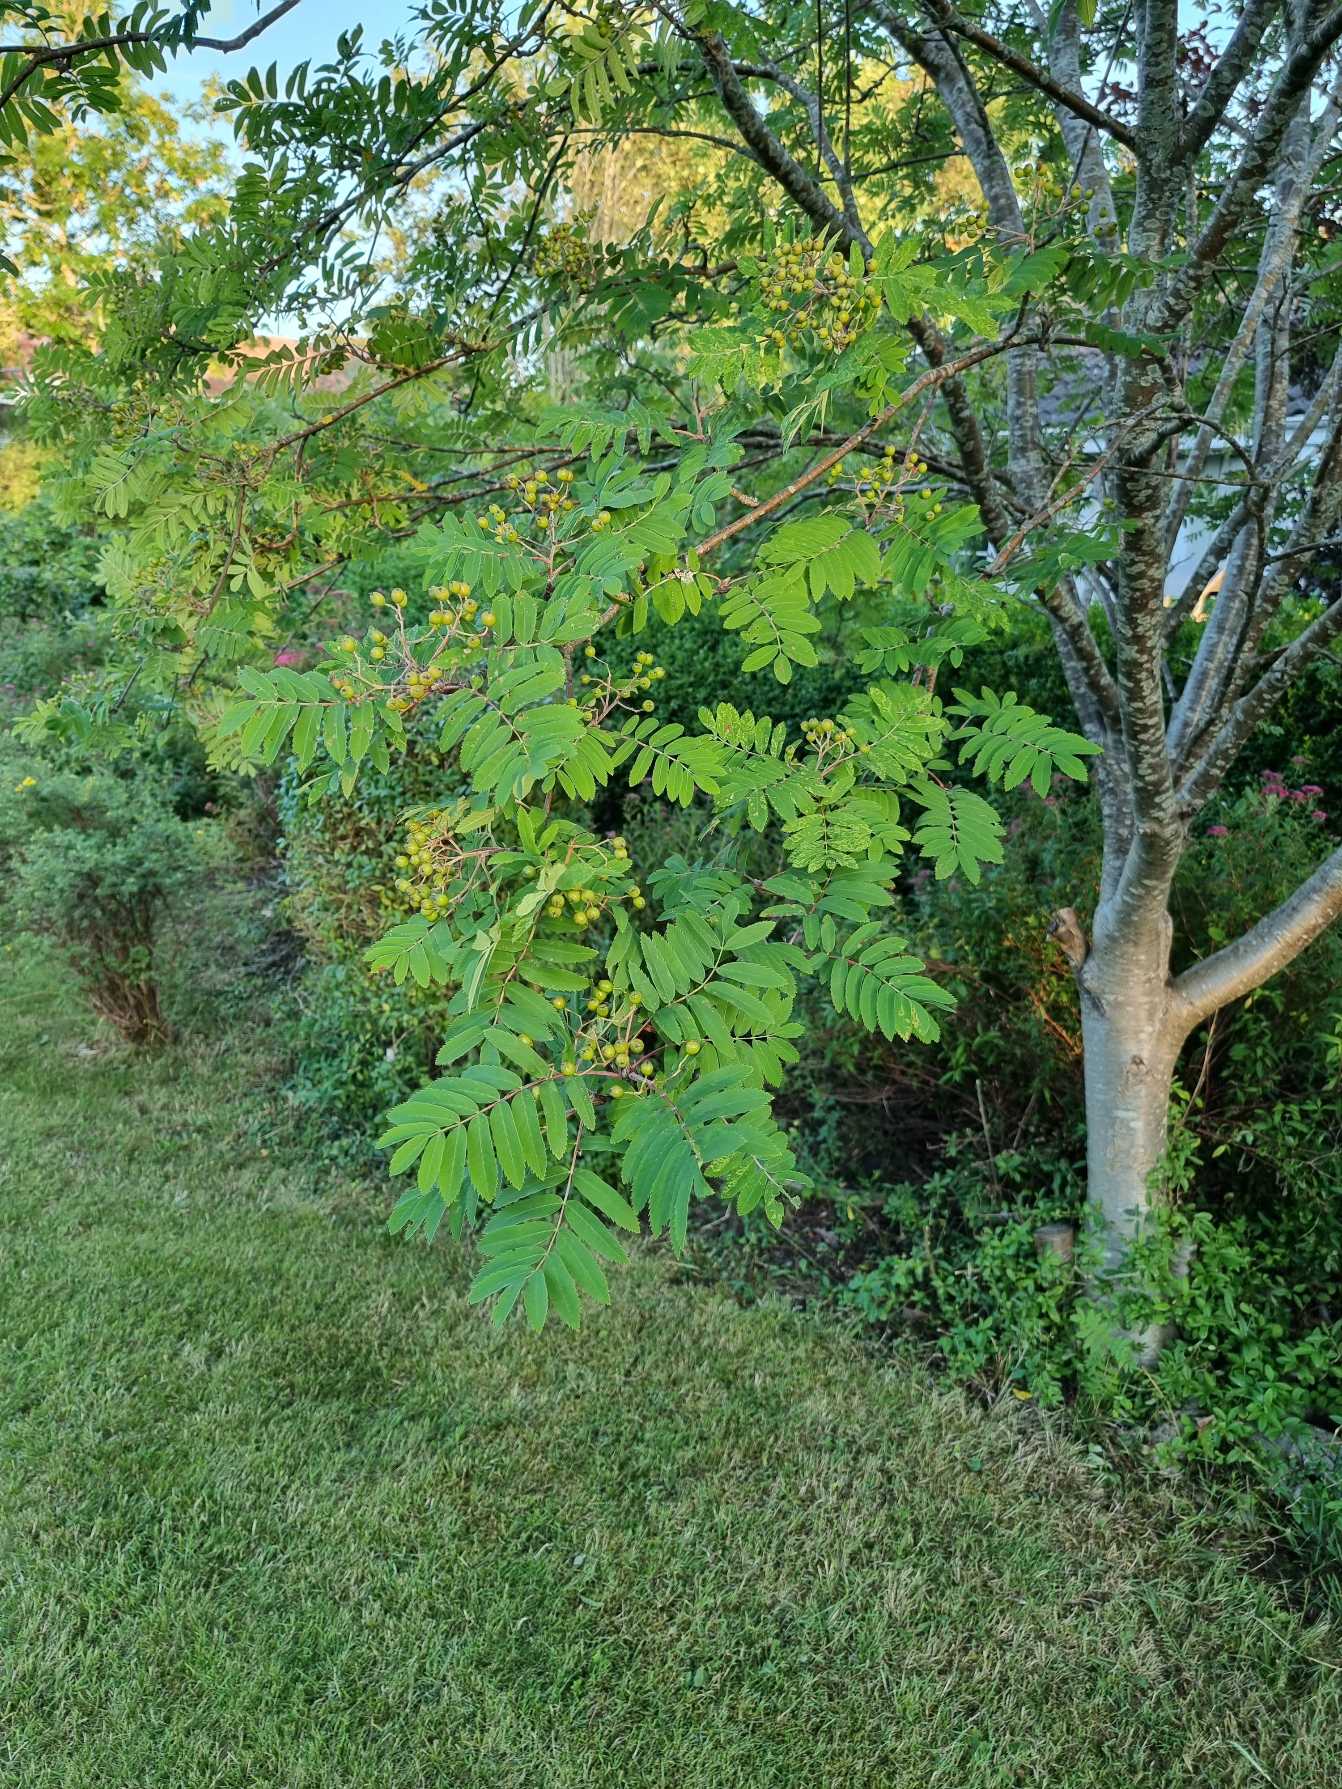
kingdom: Plantae
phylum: Tracheophyta
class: Magnoliopsida
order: Rosales
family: Rosaceae
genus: Sorbus
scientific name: Sorbus aucuparia
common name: Almindelig røn
